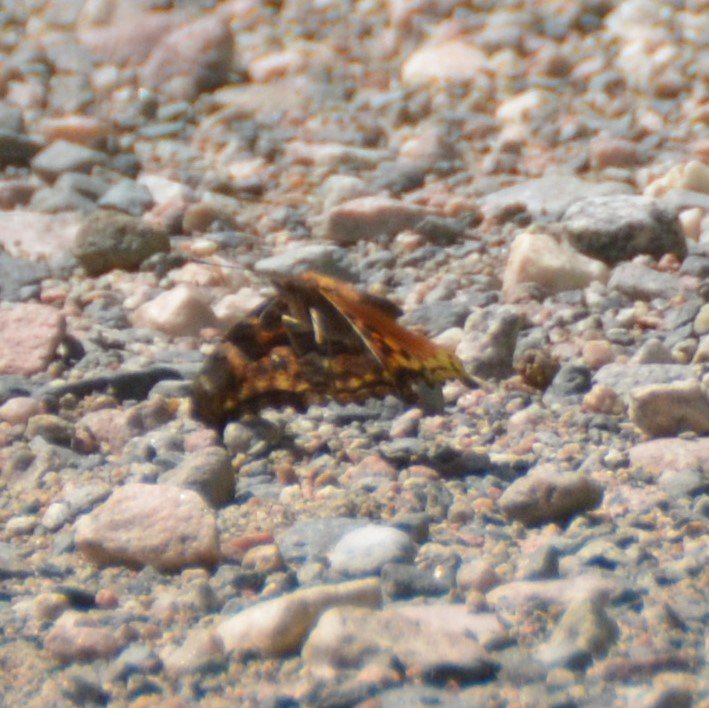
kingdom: Animalia
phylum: Arthropoda
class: Insecta
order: Lepidoptera
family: Nymphalidae
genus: Polygonia
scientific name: Polygonia vaualbum
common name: Compton Tortoiseshell
